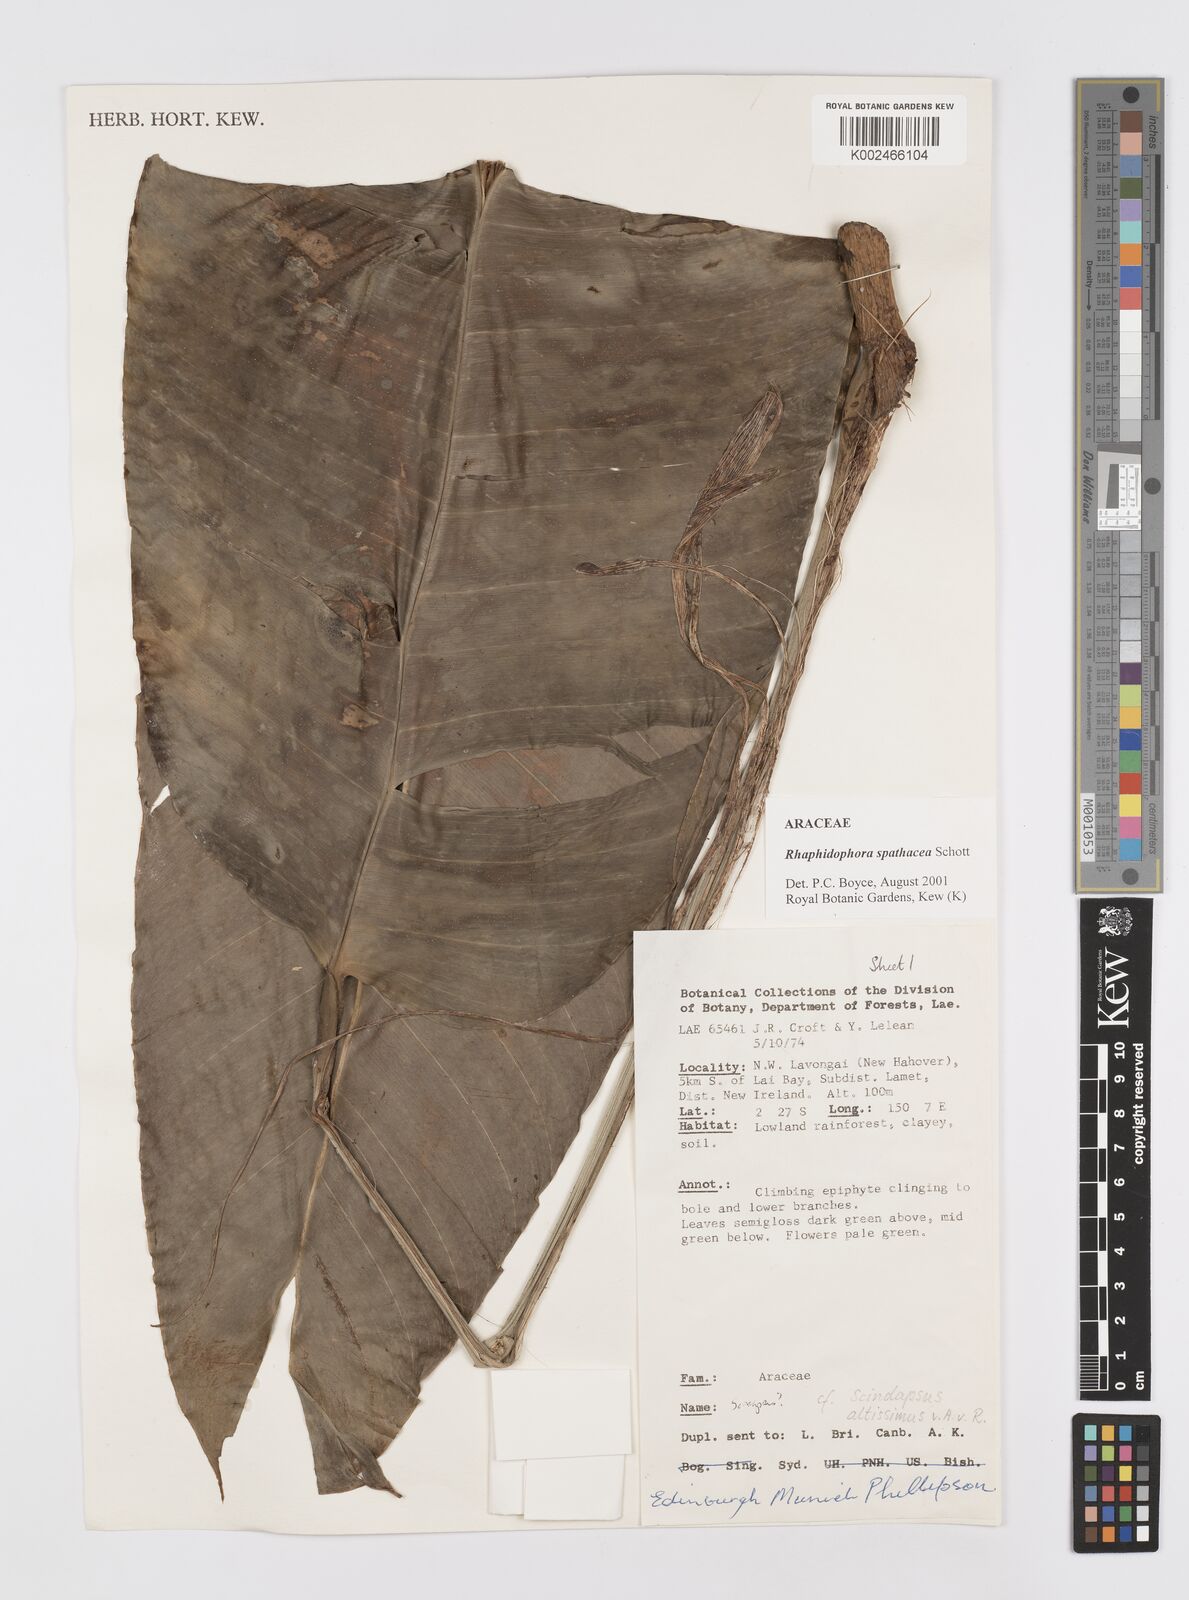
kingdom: Plantae
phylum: Tracheophyta
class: Liliopsida
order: Alismatales
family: Araceae
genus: Rhaphidophora
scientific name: Rhaphidophora spathacea
